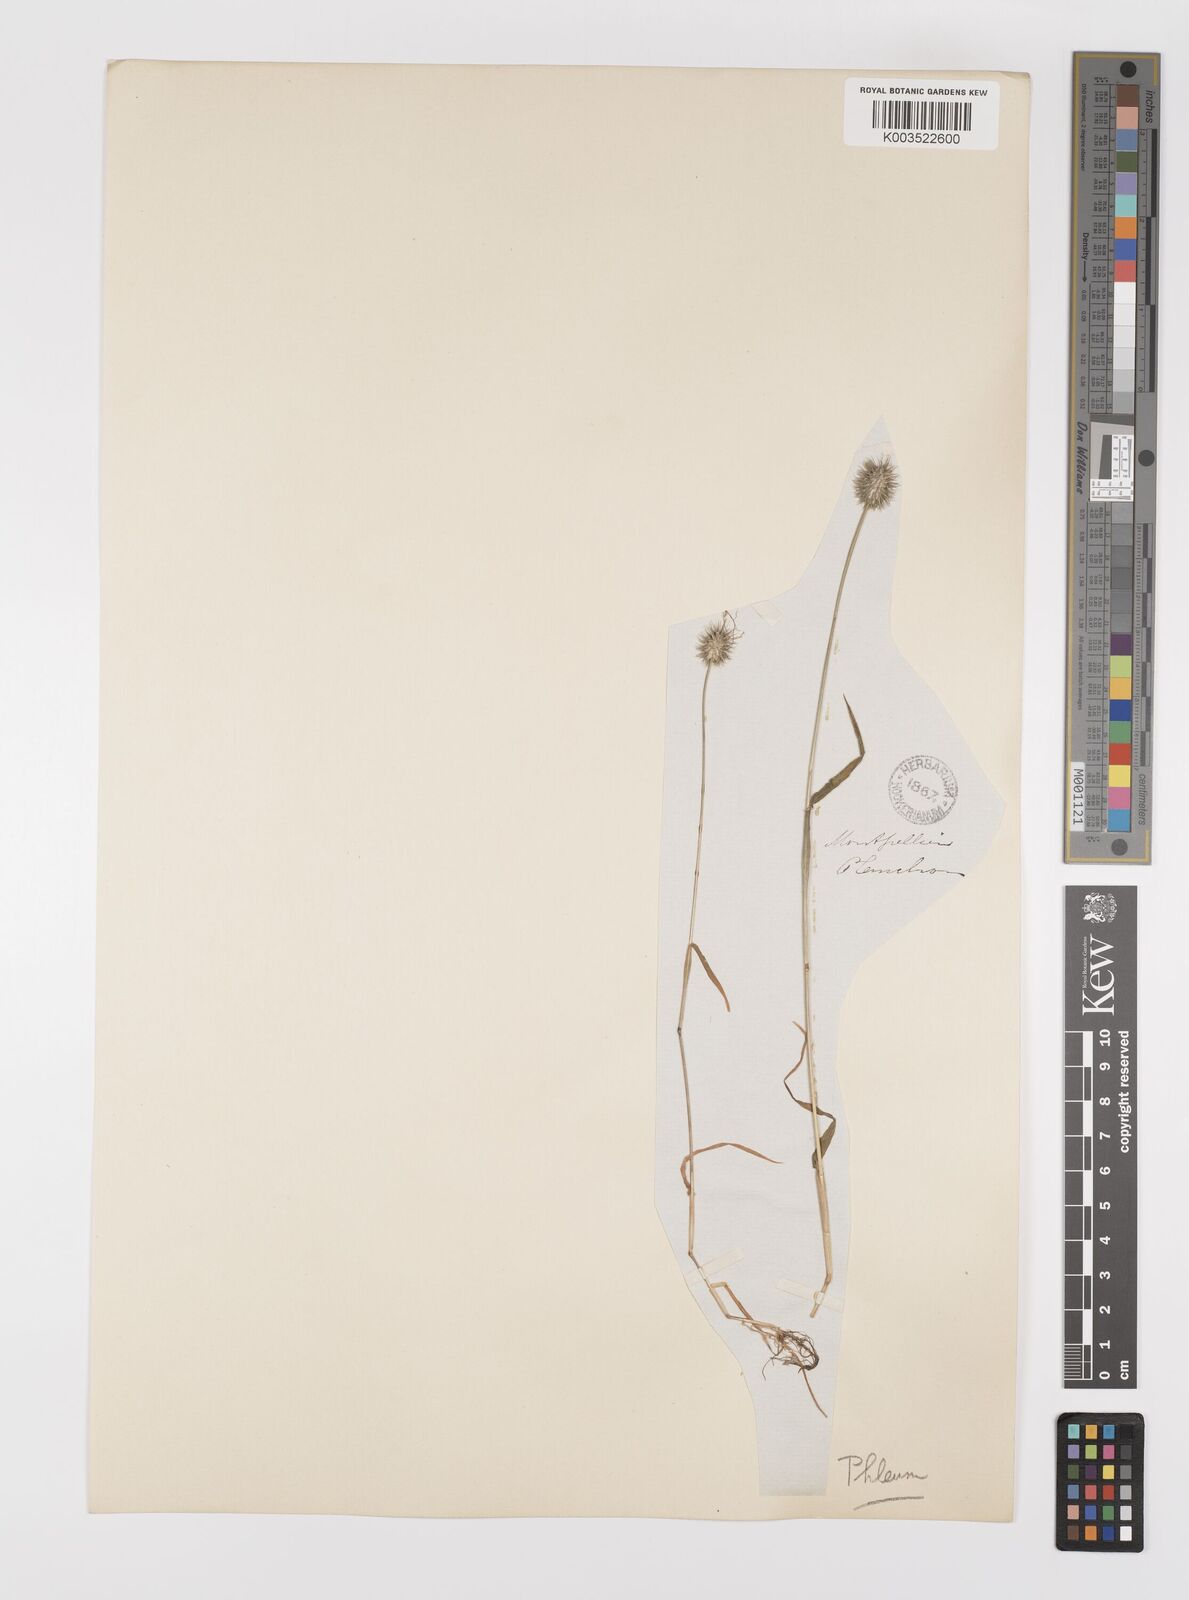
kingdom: Plantae
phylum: Tracheophyta
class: Liliopsida
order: Poales
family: Poaceae
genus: Phleum
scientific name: Phleum echinatum
